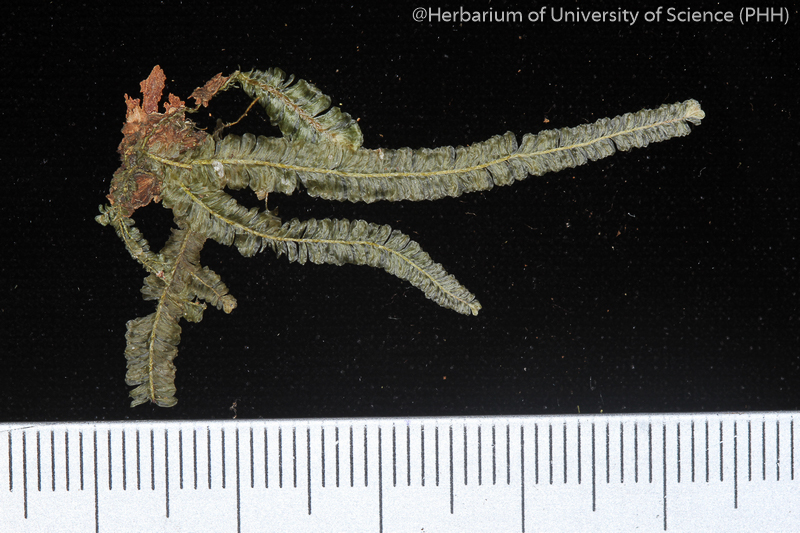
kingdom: Plantae
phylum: Bryophyta
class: Bryopsida
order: Hypnales
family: Neckeraceae
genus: Planicladium
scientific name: Planicladium semperianum
